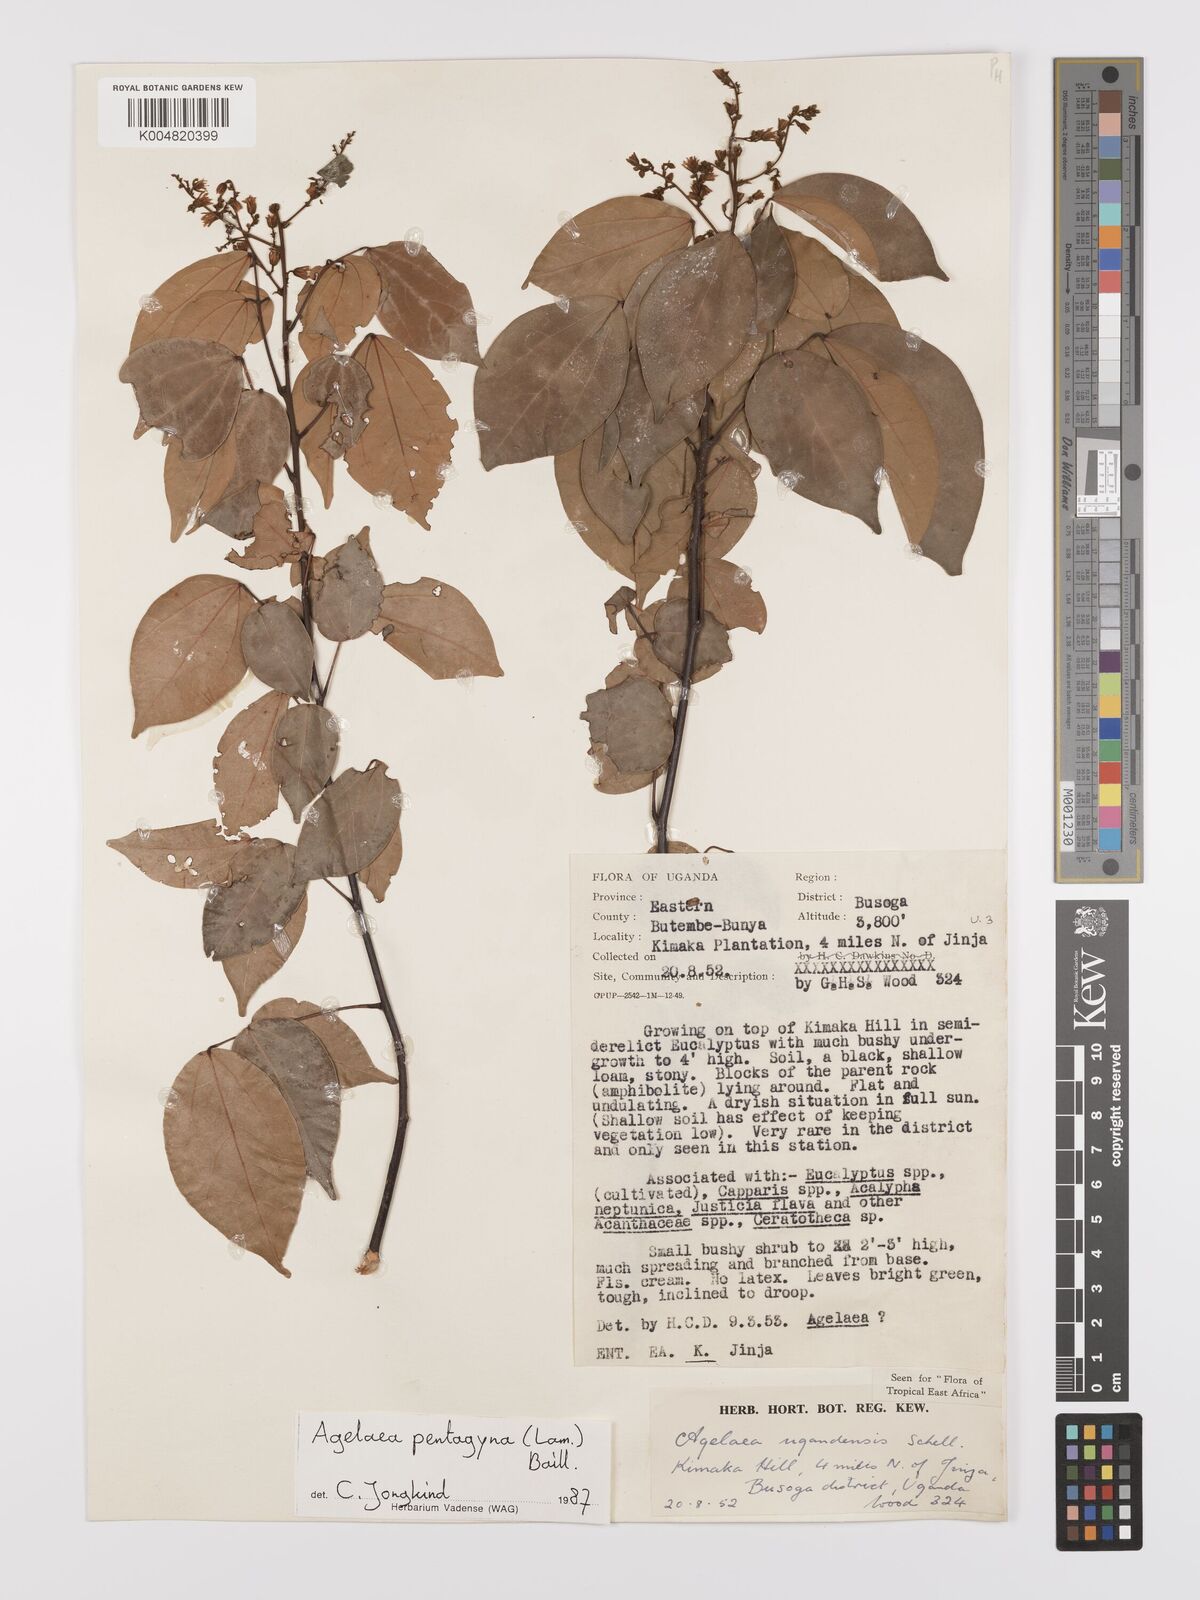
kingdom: Plantae
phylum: Tracheophyta
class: Magnoliopsida
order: Oxalidales
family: Connaraceae
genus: Agelaea
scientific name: Agelaea pentagyna
